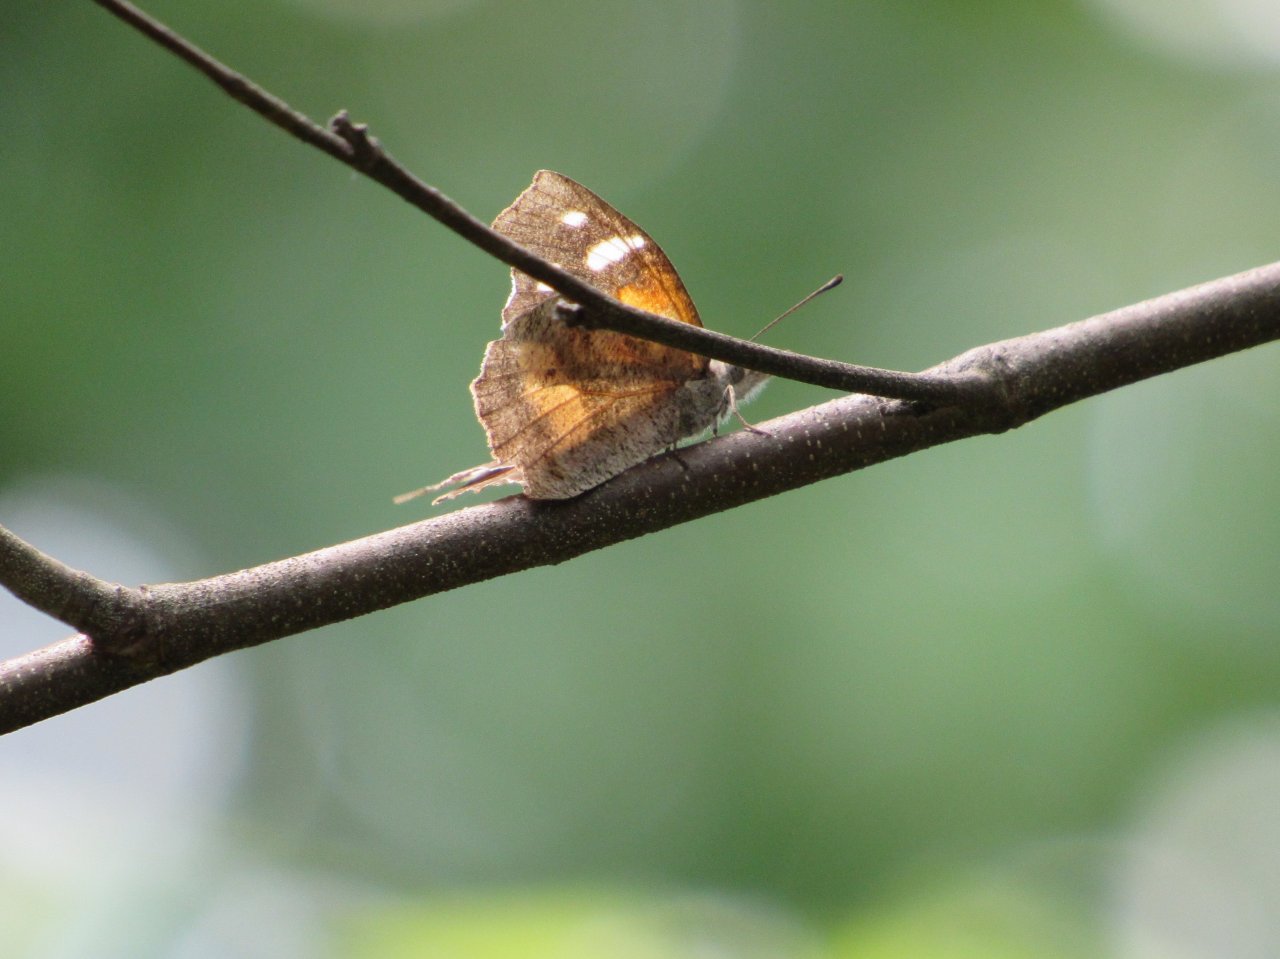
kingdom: Animalia
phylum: Arthropoda
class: Insecta
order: Lepidoptera
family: Nymphalidae
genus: Libytheana
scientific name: Libytheana carinenta
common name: American Snout
